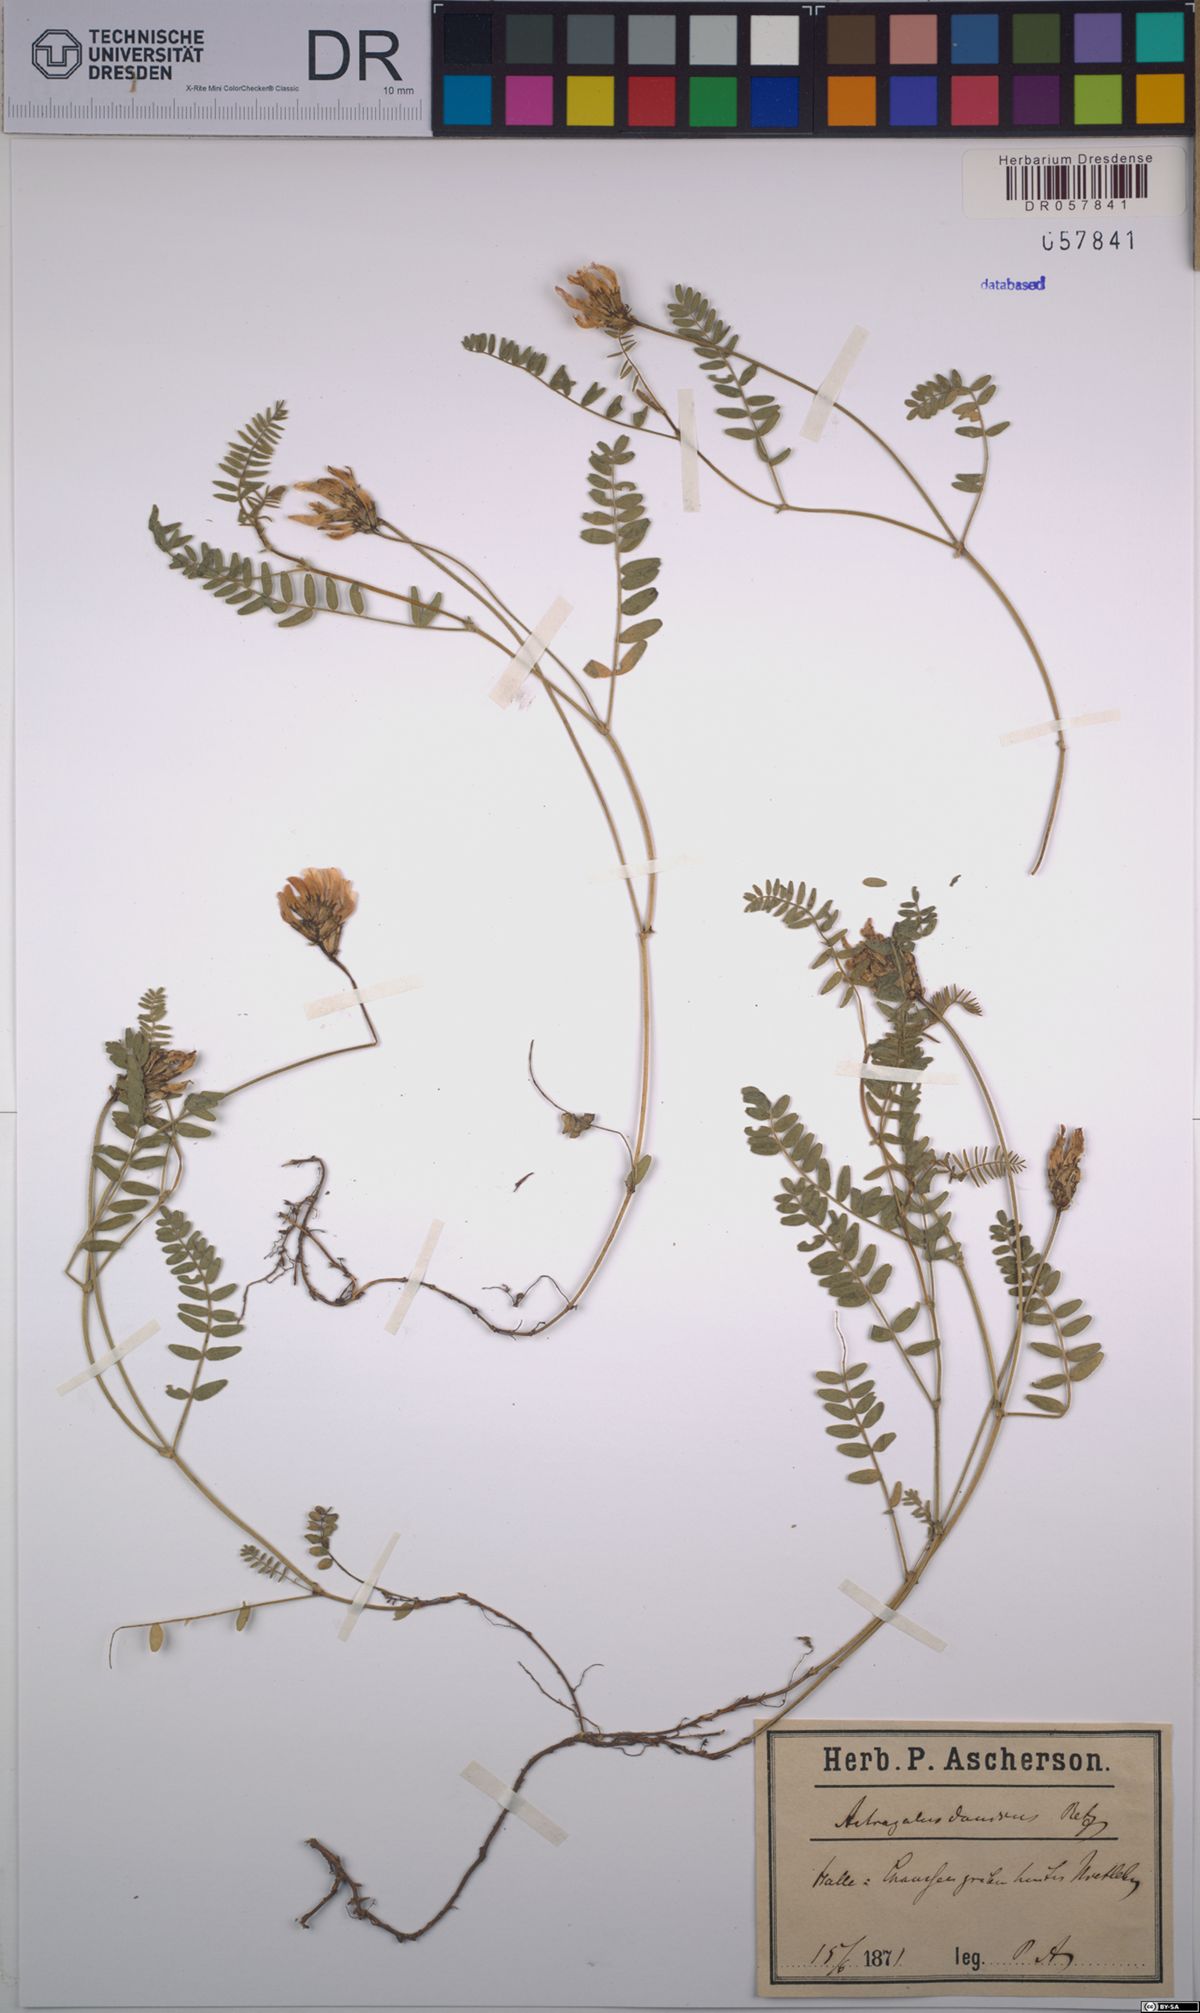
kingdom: Plantae
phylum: Tracheophyta
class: Magnoliopsida
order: Fabales
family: Fabaceae
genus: Astragalus
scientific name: Astragalus danicus
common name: Purple milk-vetch
